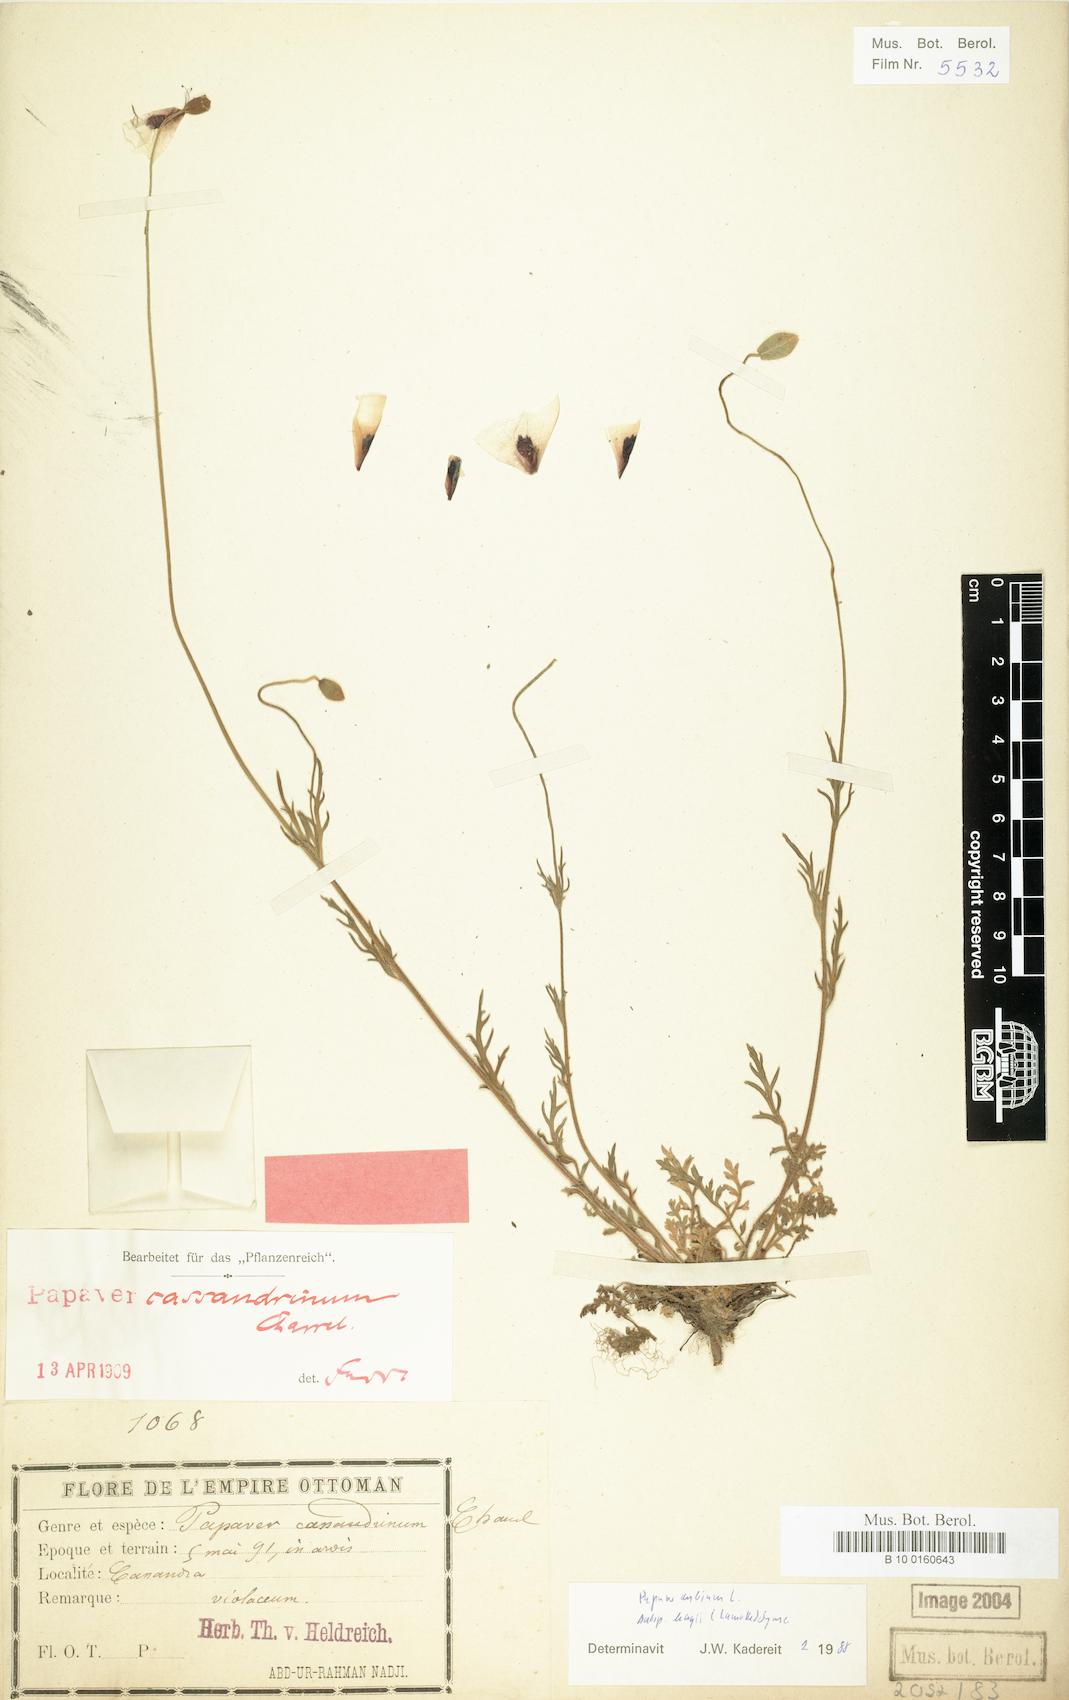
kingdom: Plantae
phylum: Tracheophyta
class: Magnoliopsida
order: Ranunculales
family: Papaveraceae
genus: Papaver
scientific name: Papaver dubium
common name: Long-headed poppy
